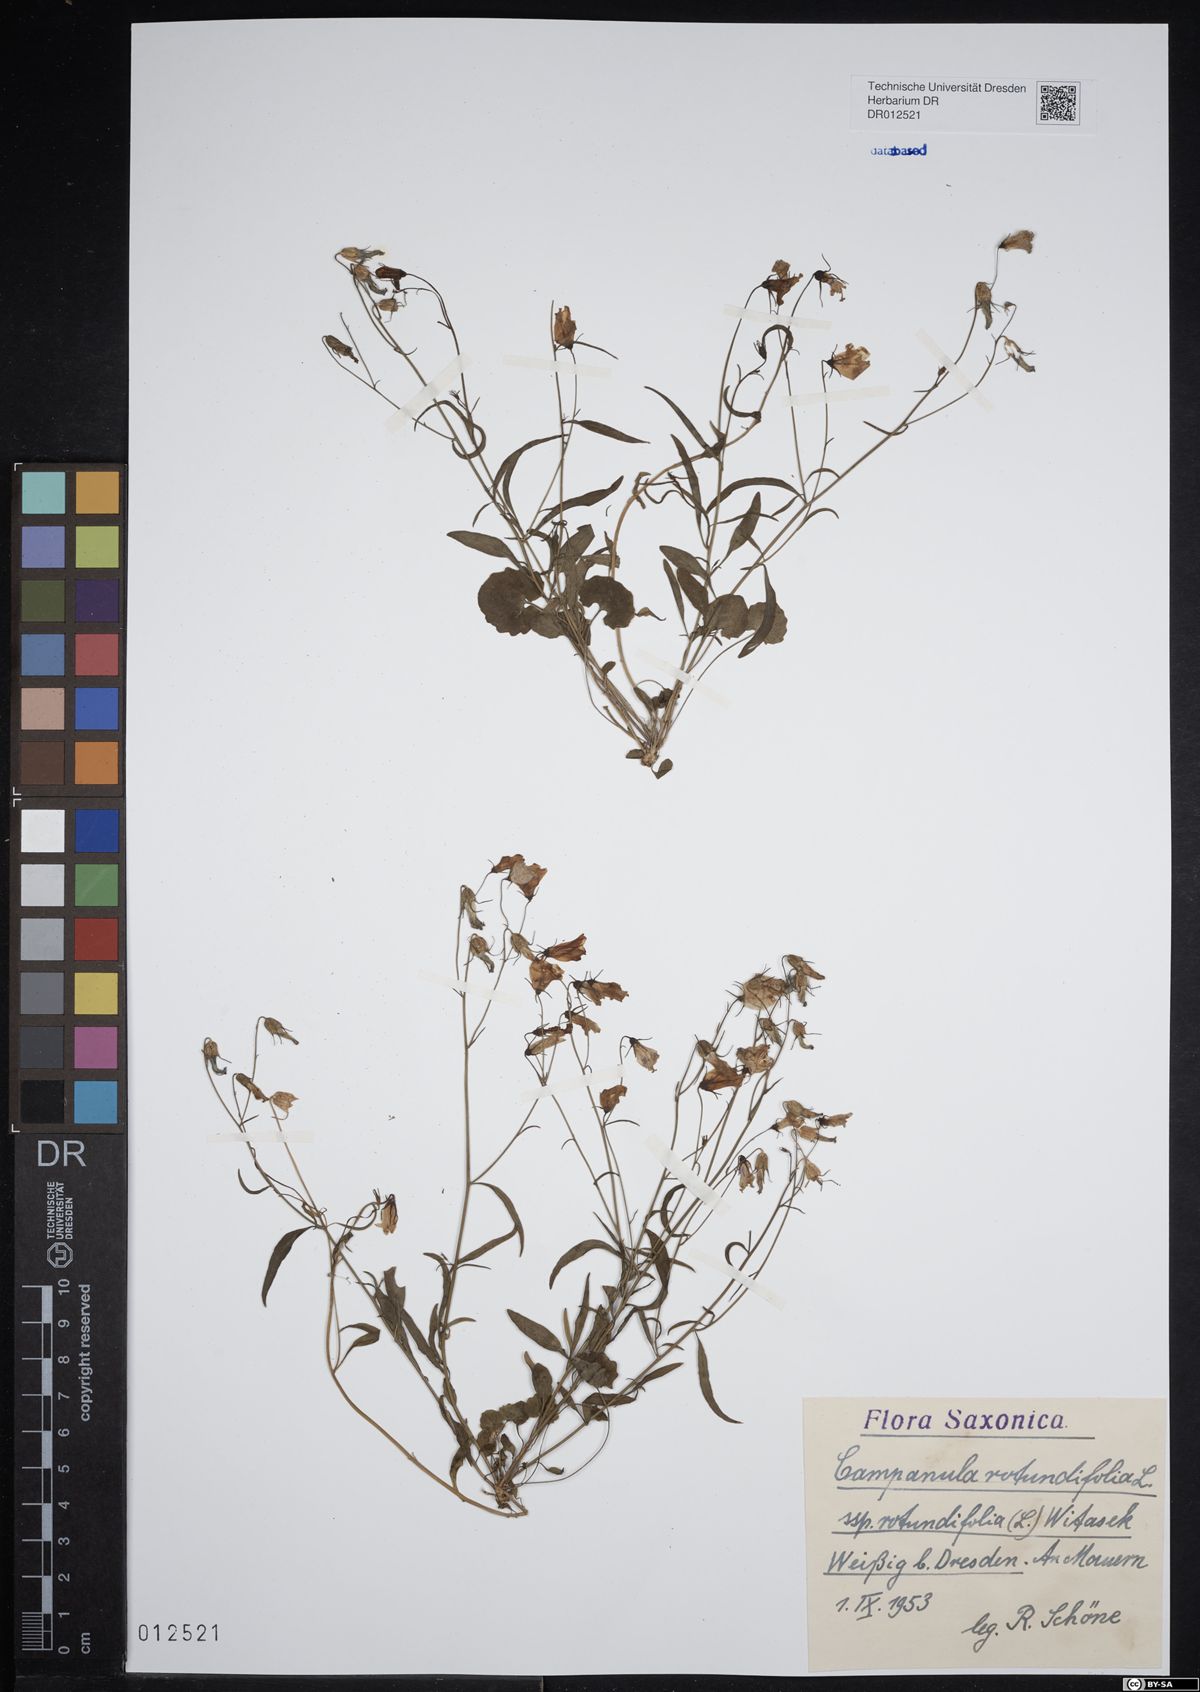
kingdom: Plantae
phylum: Tracheophyta
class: Magnoliopsida
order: Asterales
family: Campanulaceae
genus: Campanula
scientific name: Campanula rotundifolia
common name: Harebell
